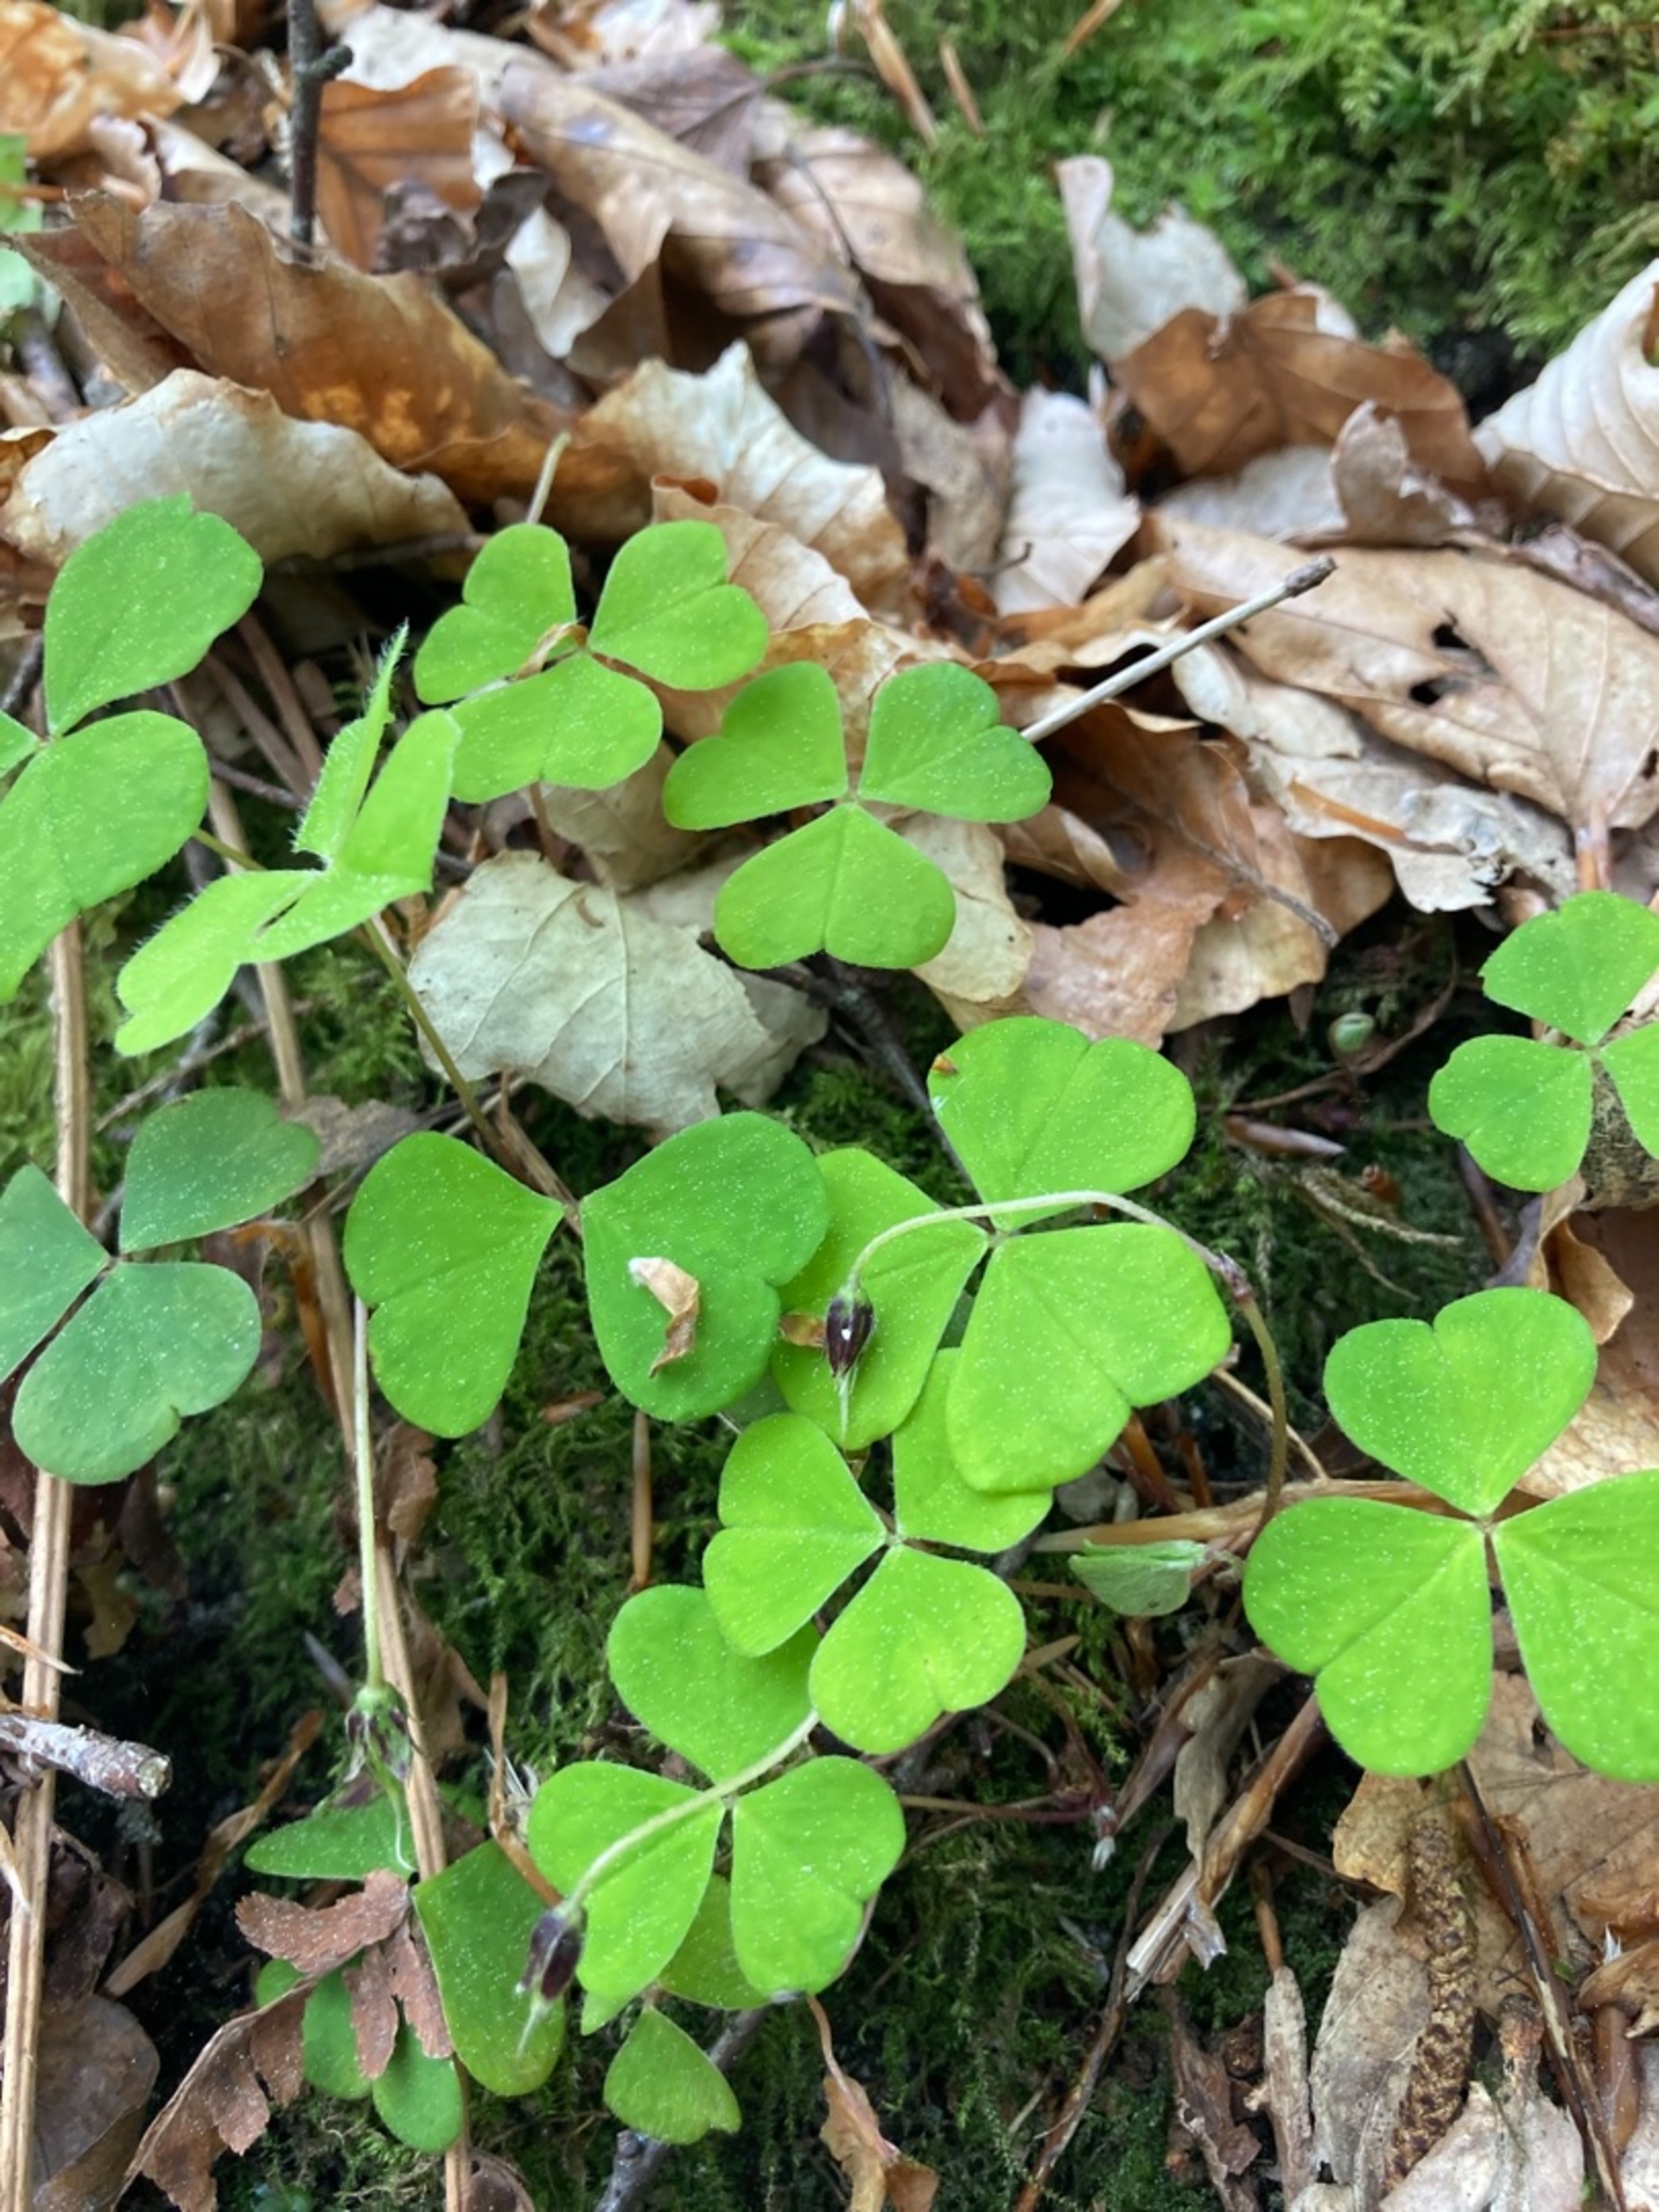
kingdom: Plantae
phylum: Tracheophyta
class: Magnoliopsida
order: Oxalidales
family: Oxalidaceae
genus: Oxalis
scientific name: Oxalis acetosella
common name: Skovsyre
